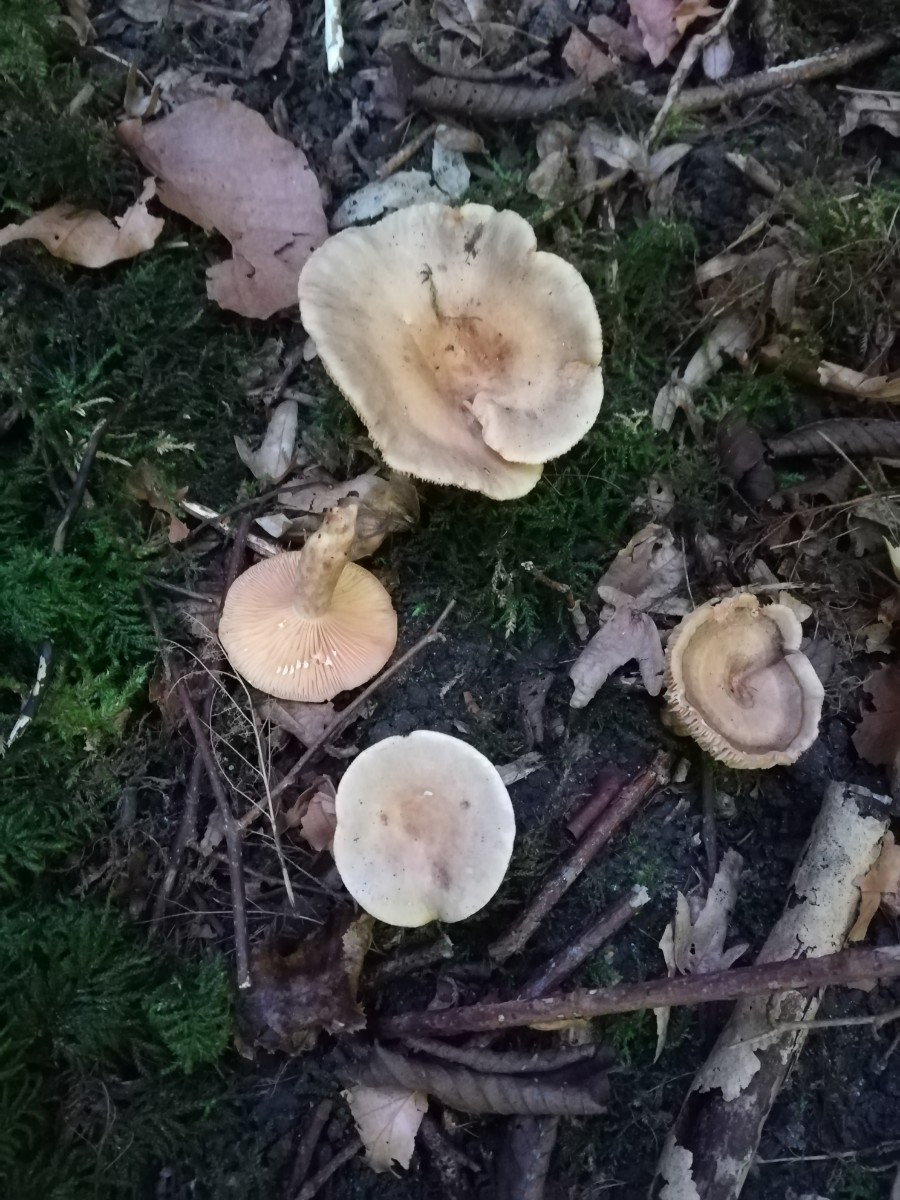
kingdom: Fungi
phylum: Basidiomycota
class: Agaricomycetes
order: Russulales
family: Russulaceae
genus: Lactarius
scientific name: Lactarius pyrogalus
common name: hassel-mælkehat
